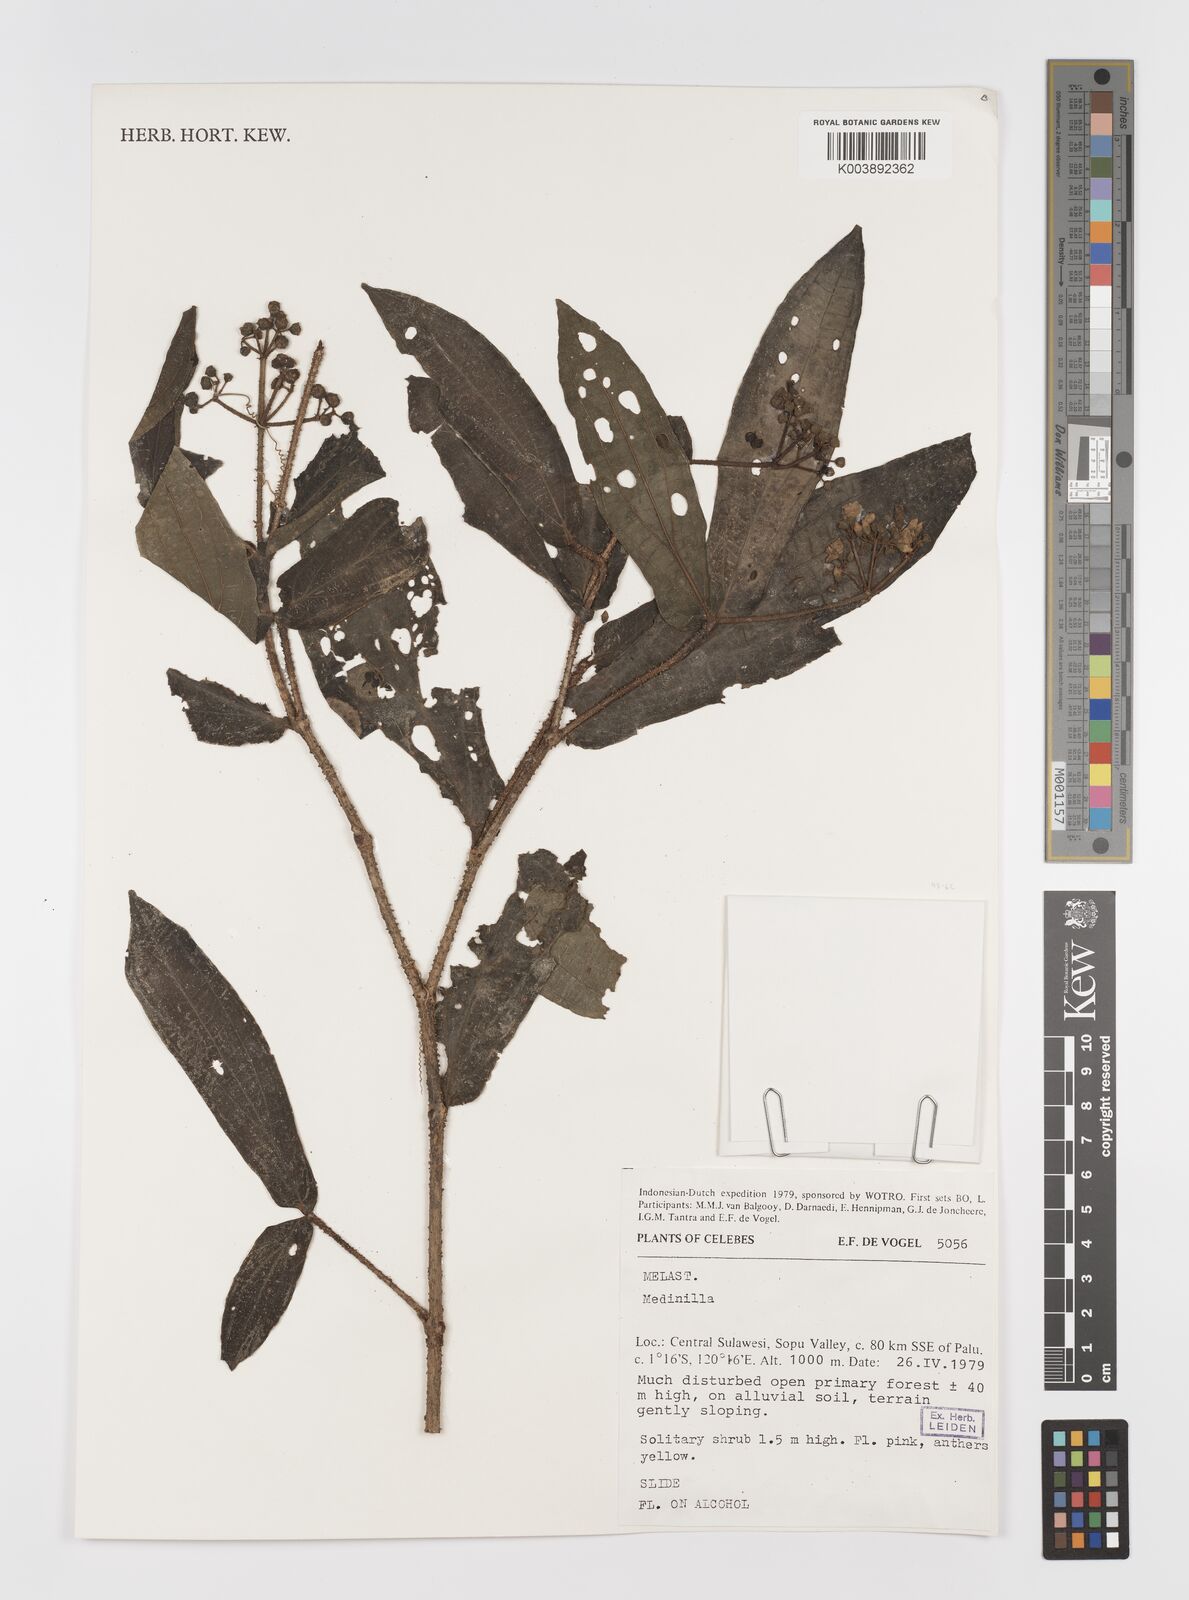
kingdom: Plantae
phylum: Tracheophyta
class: Magnoliopsida
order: Myrtales
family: Melastomataceae
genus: Medinilla
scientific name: Medinilla
